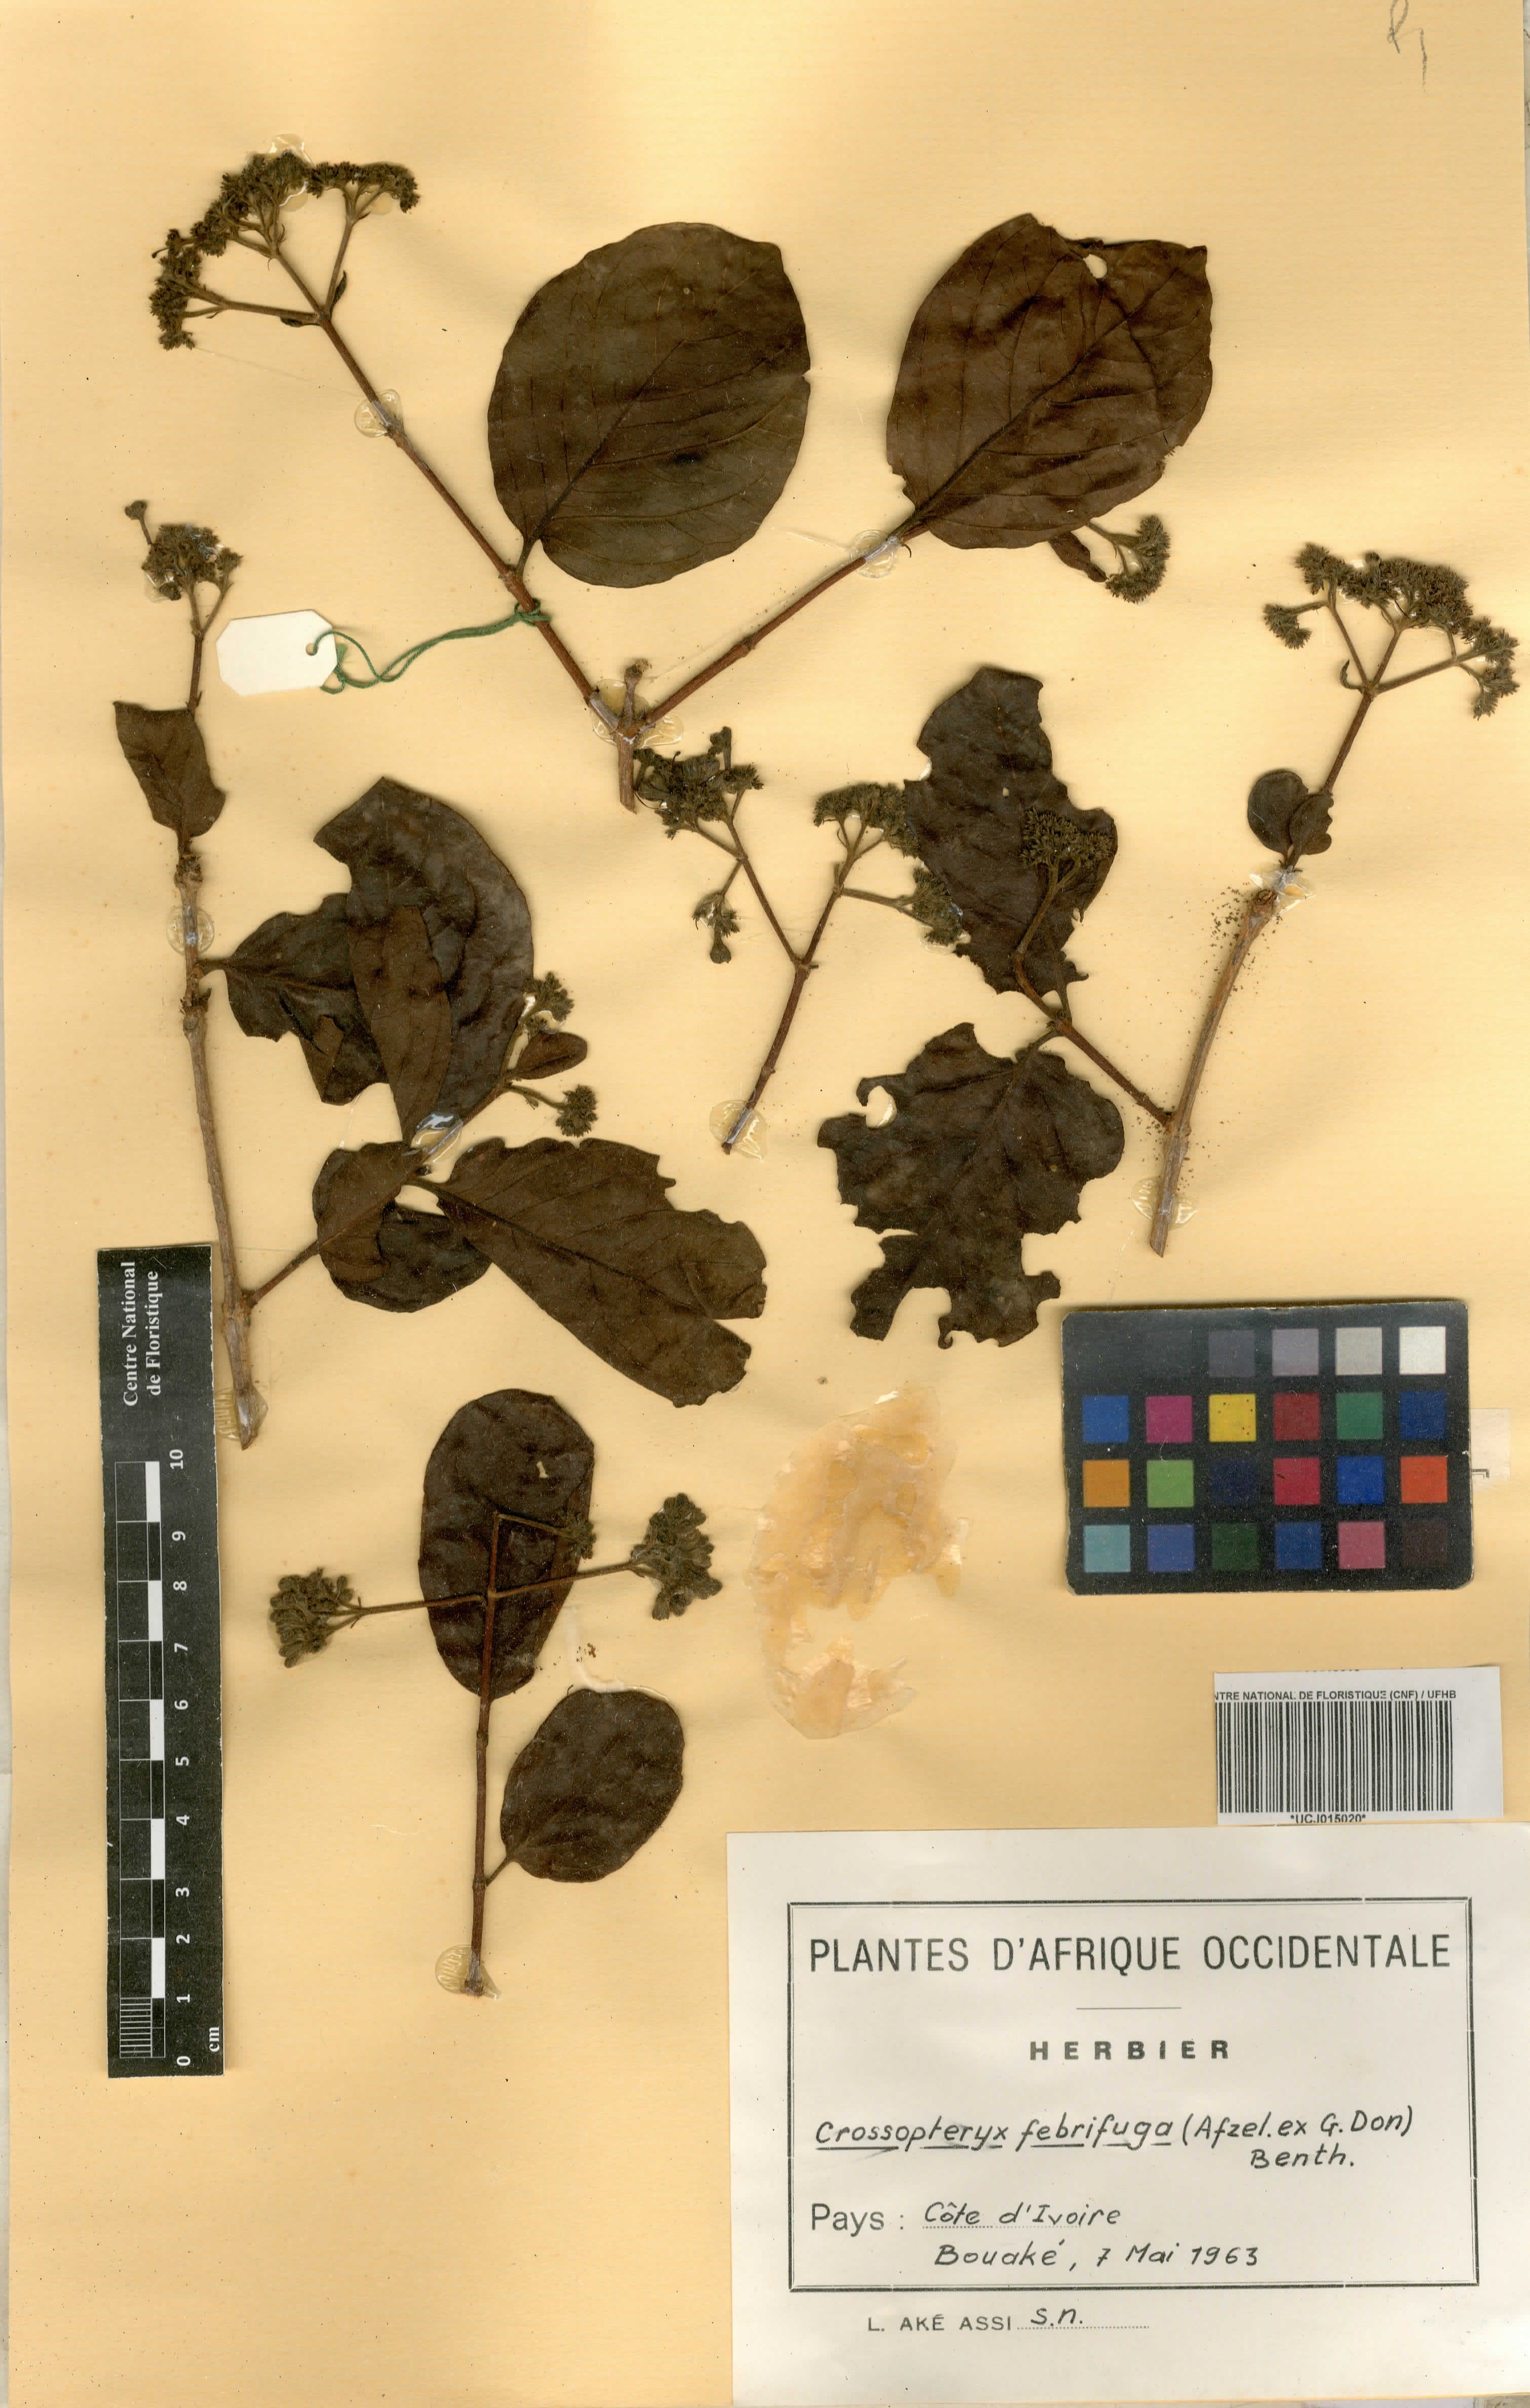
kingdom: Plantae
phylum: Tracheophyta
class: Magnoliopsida
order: Gentianales
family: Rubiaceae
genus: Crossopteryx
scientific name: Crossopteryx febrifuga
